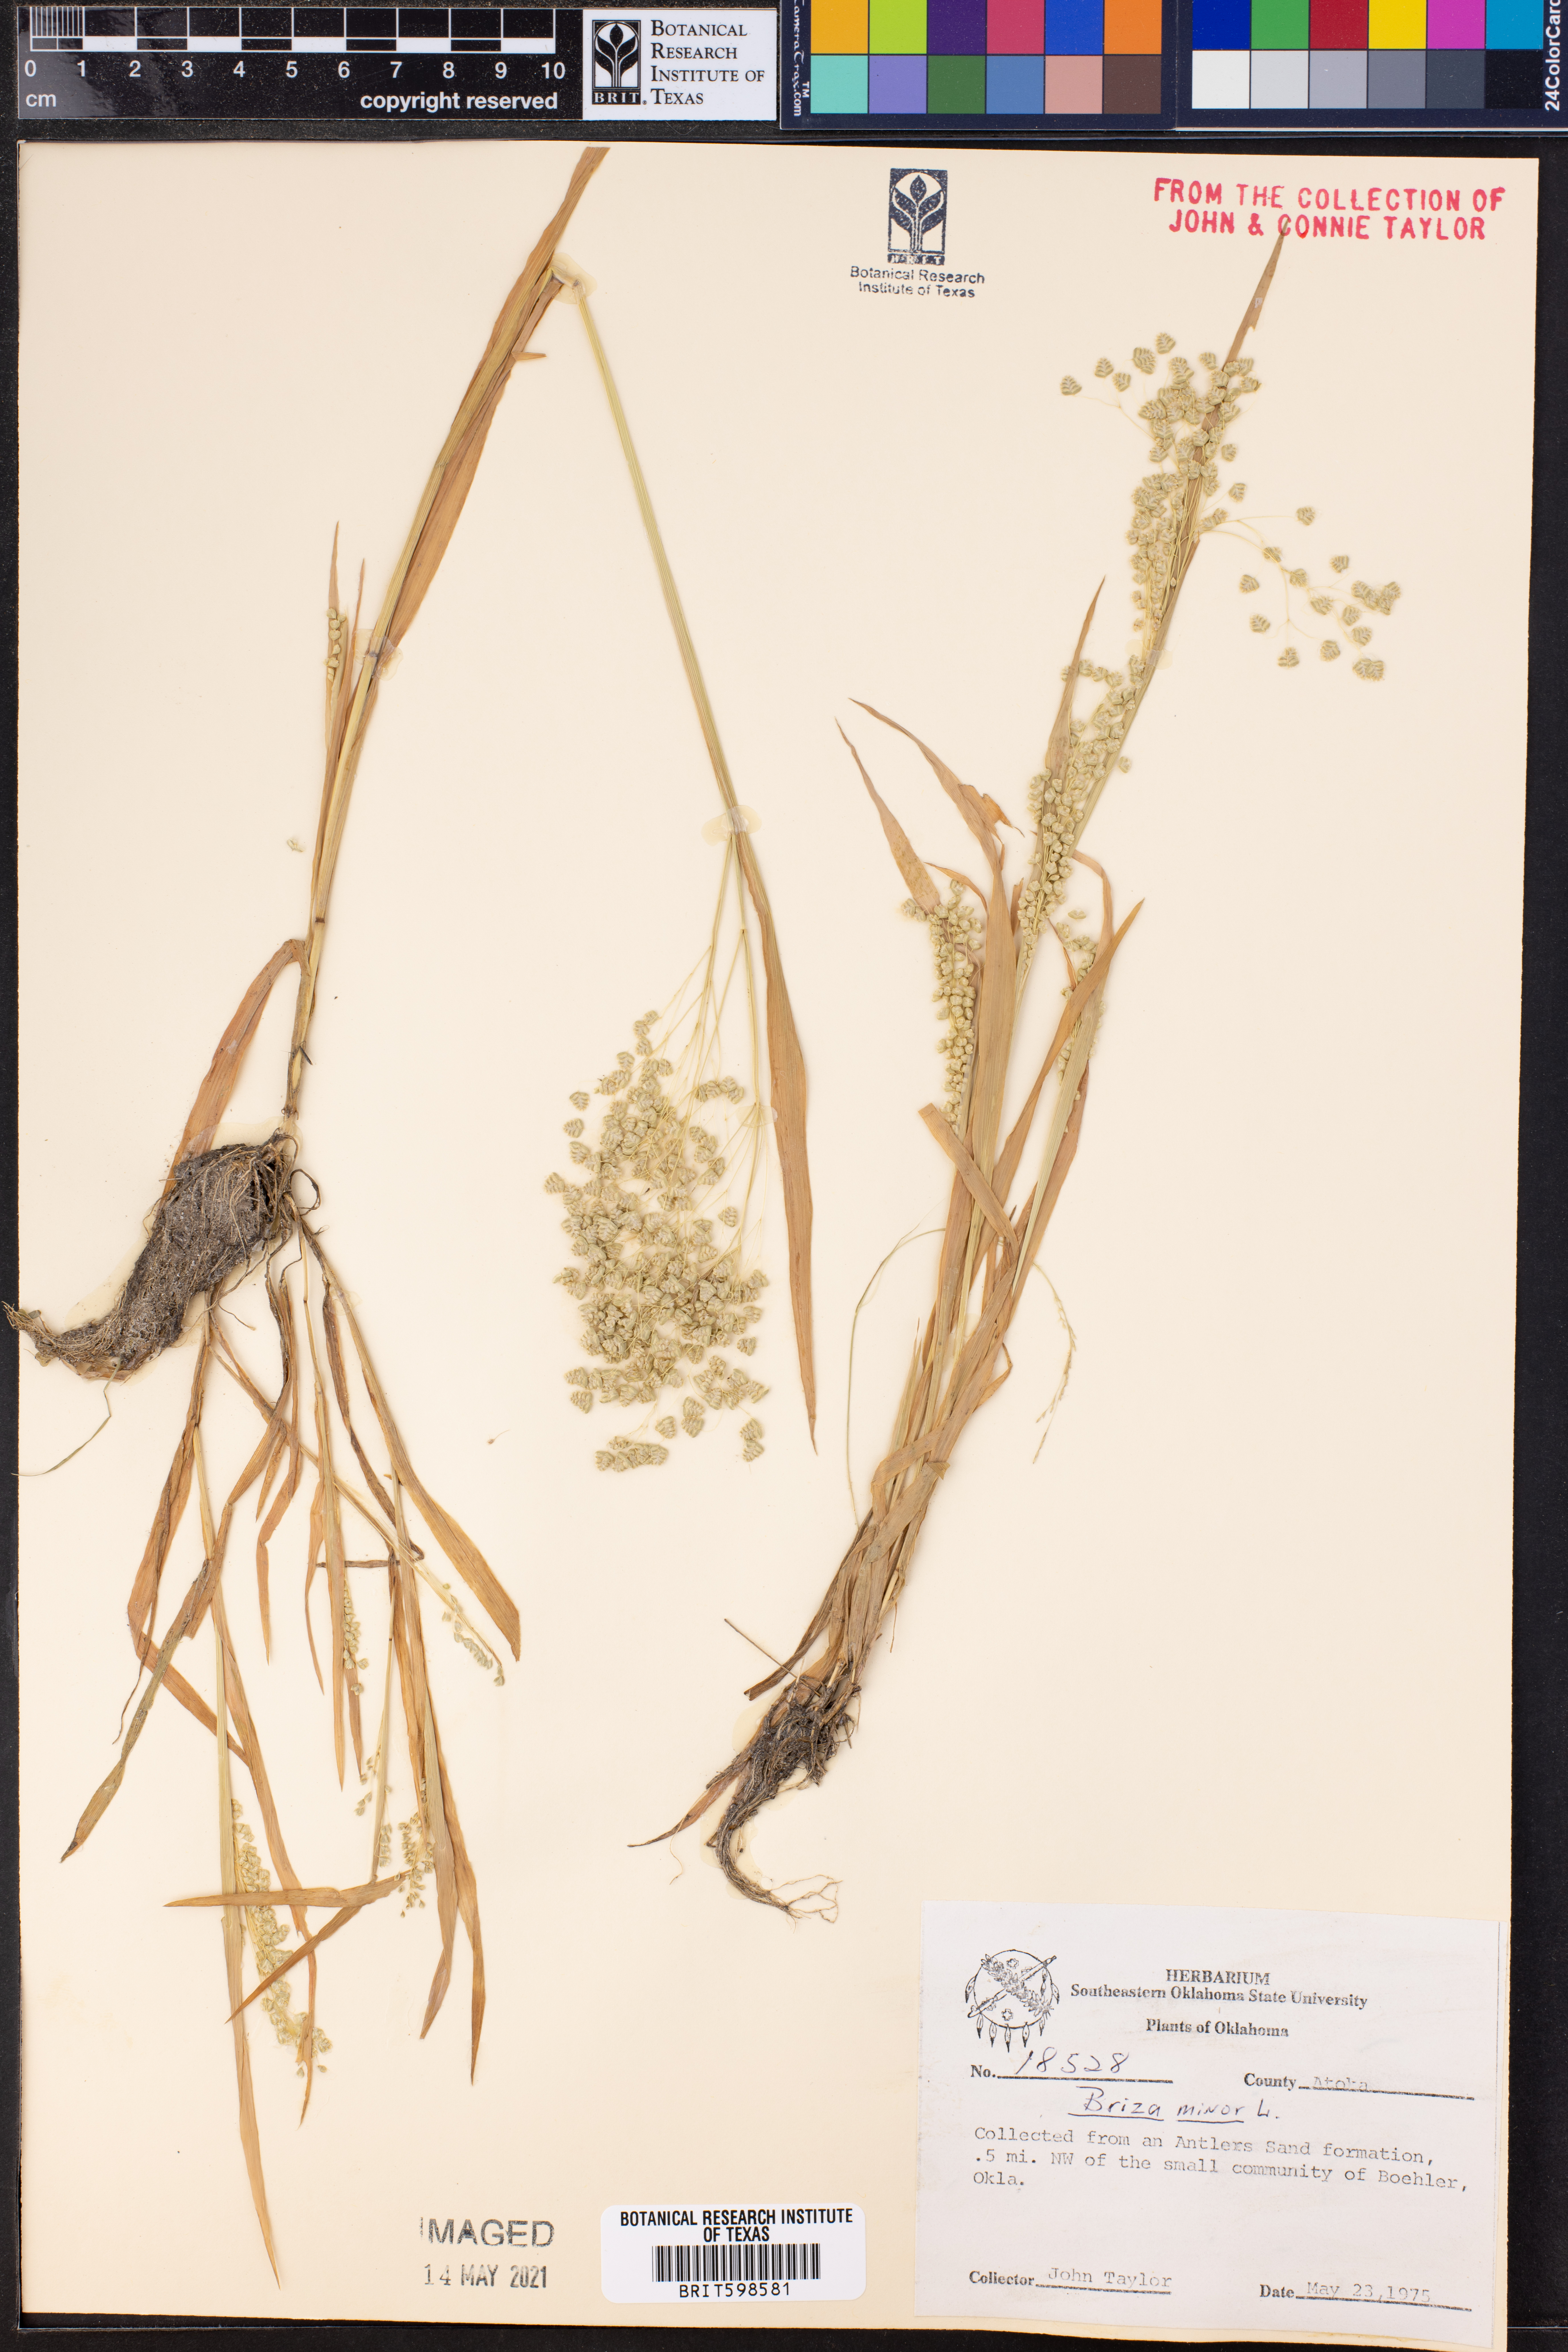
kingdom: Plantae
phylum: Tracheophyta
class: Liliopsida
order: Poales
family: Poaceae
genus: Briza
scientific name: Briza minor
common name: Lesser quaking-grass
